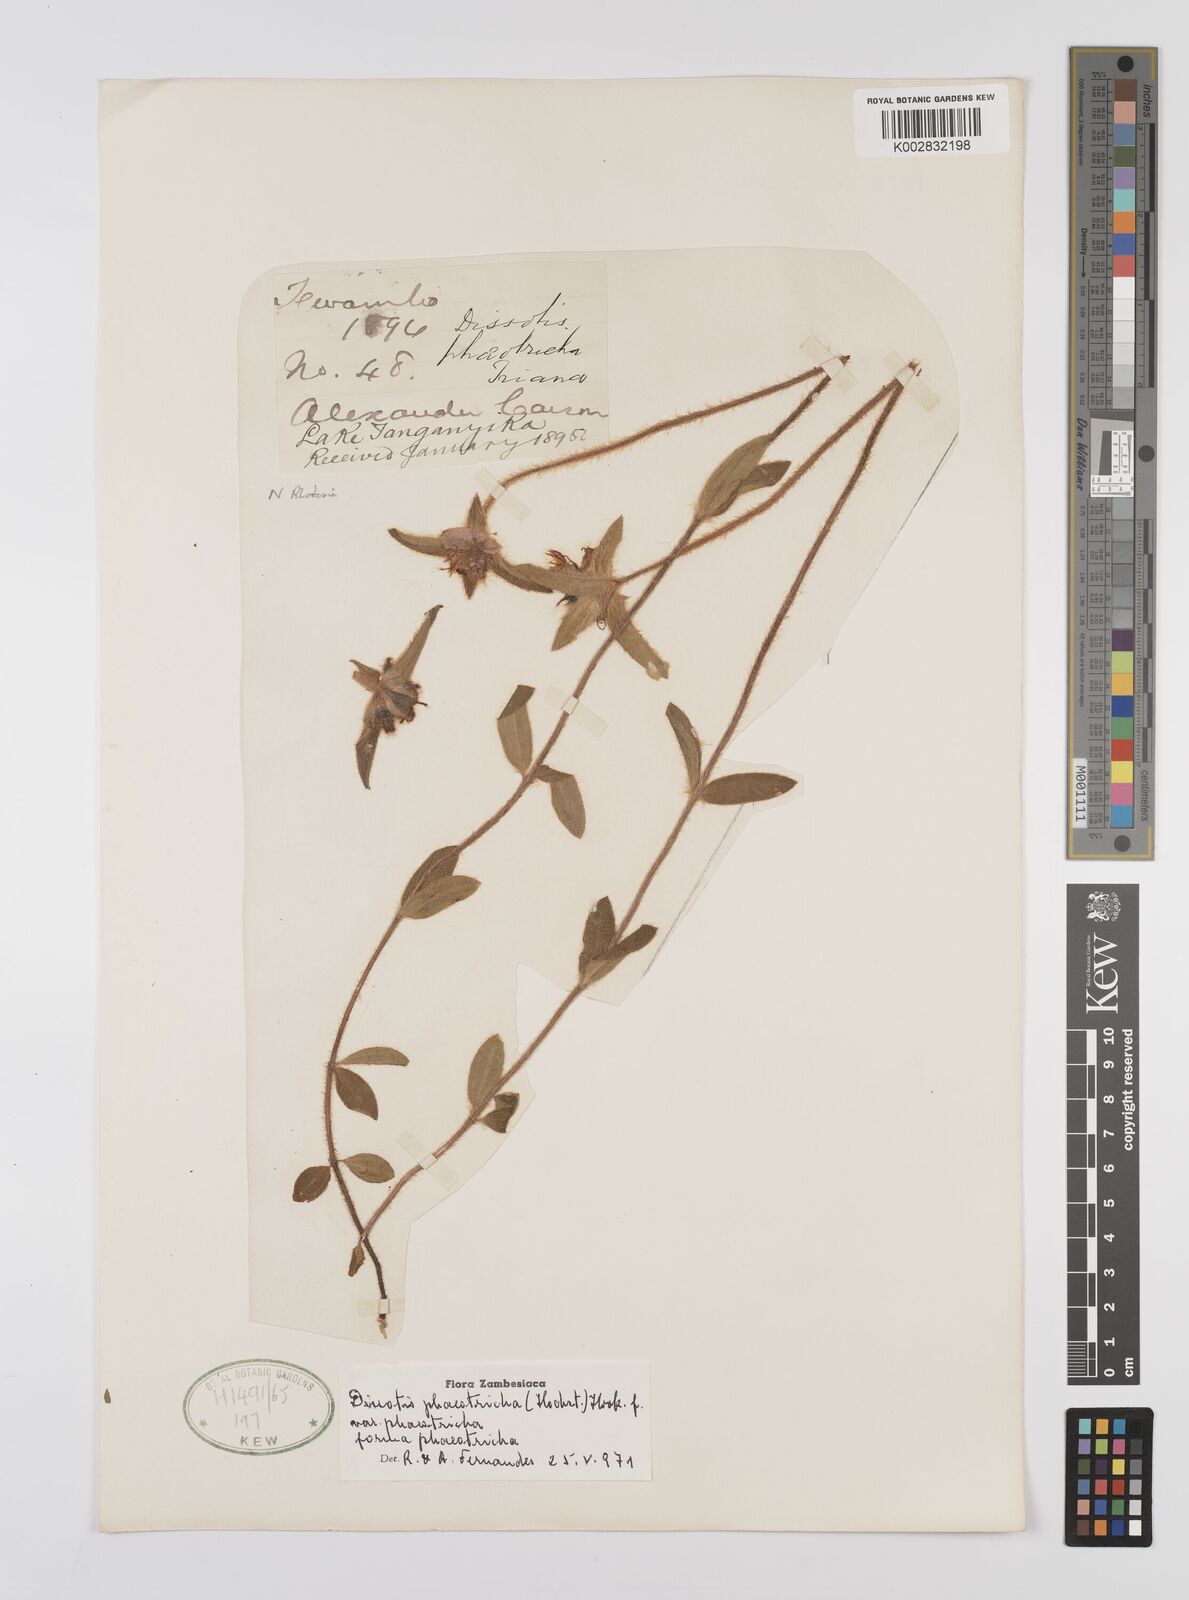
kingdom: Plantae
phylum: Tracheophyta
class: Magnoliopsida
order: Myrtales
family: Melastomataceae
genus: Antherotoma
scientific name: Antherotoma phaeotricha
